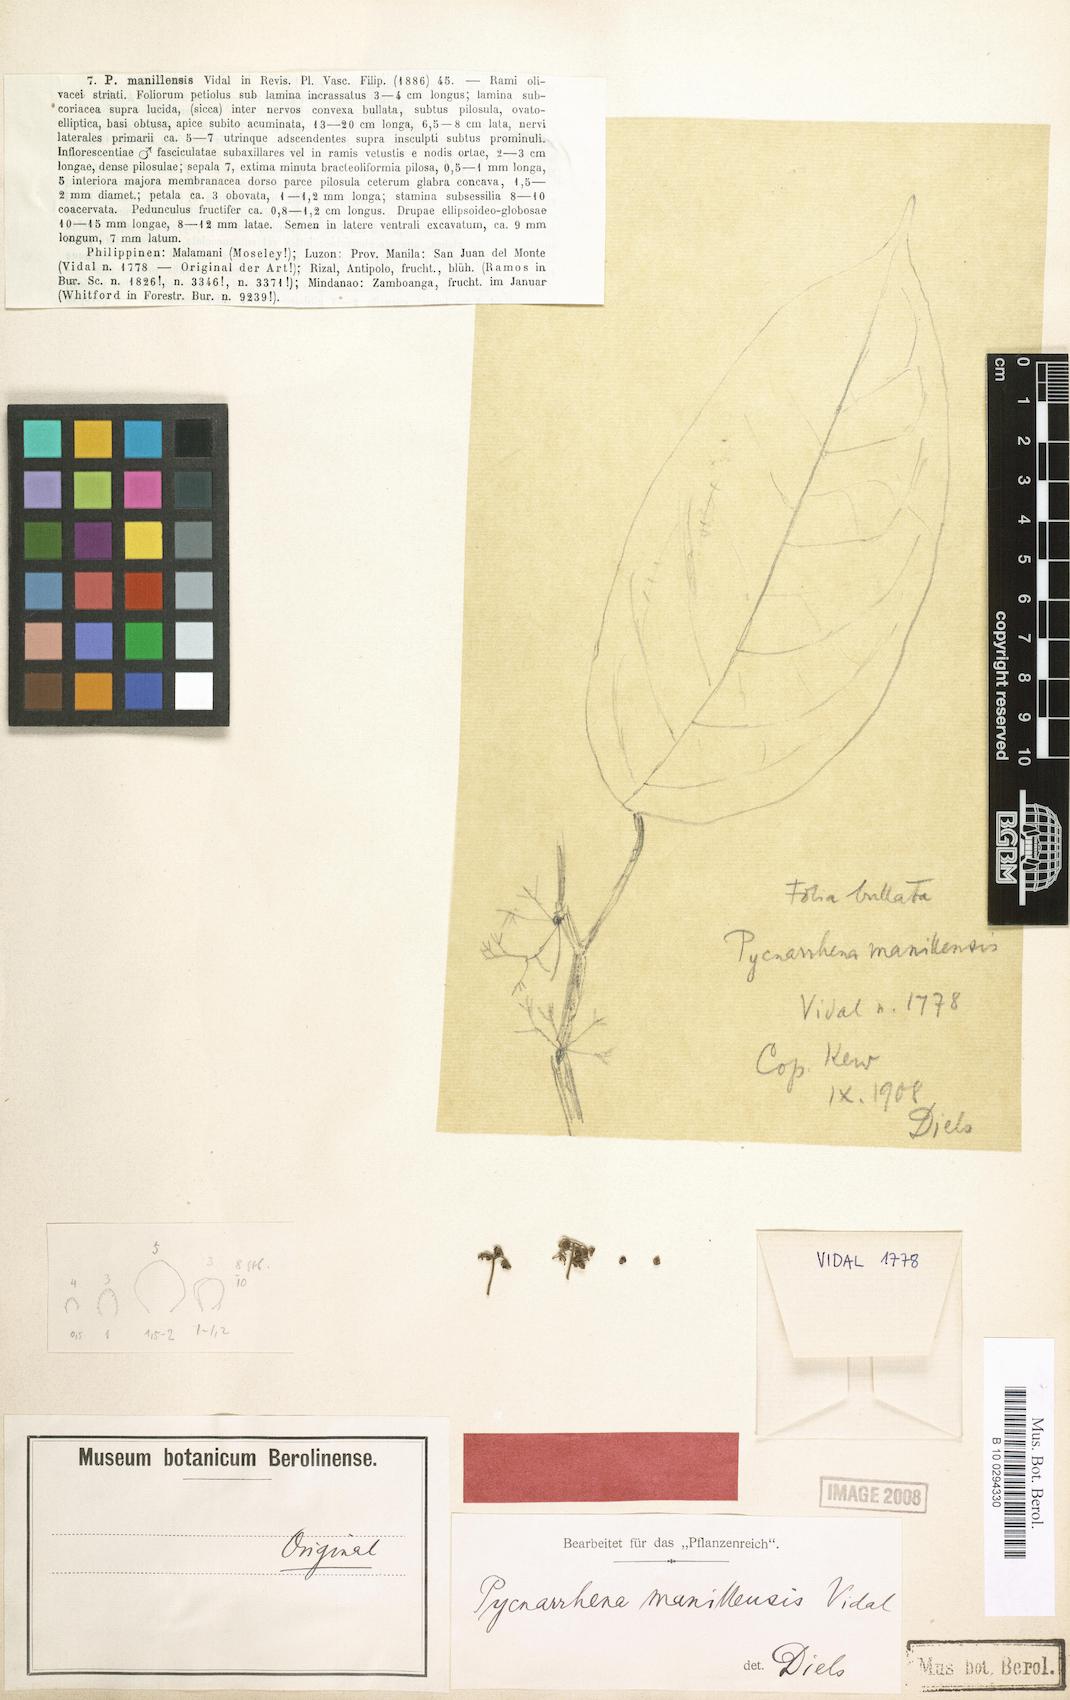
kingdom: Plantae
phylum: Tracheophyta
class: Magnoliopsida
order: Ranunculales
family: Menispermaceae
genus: Pycnarrhena
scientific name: Pycnarrhena manillensis
